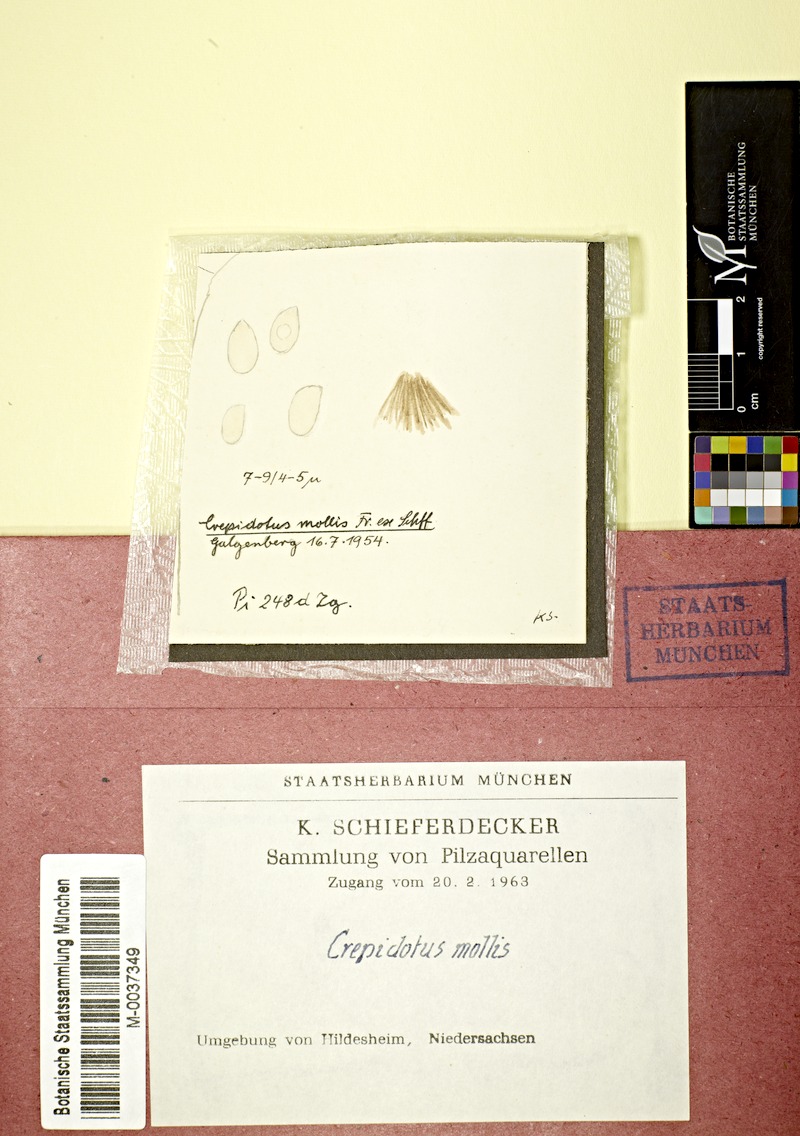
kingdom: Fungi
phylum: Basidiomycota
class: Agaricomycetes
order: Agaricales
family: Crepidotaceae
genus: Crepidotus
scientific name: Crepidotus mollis
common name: Peeling oysterling
